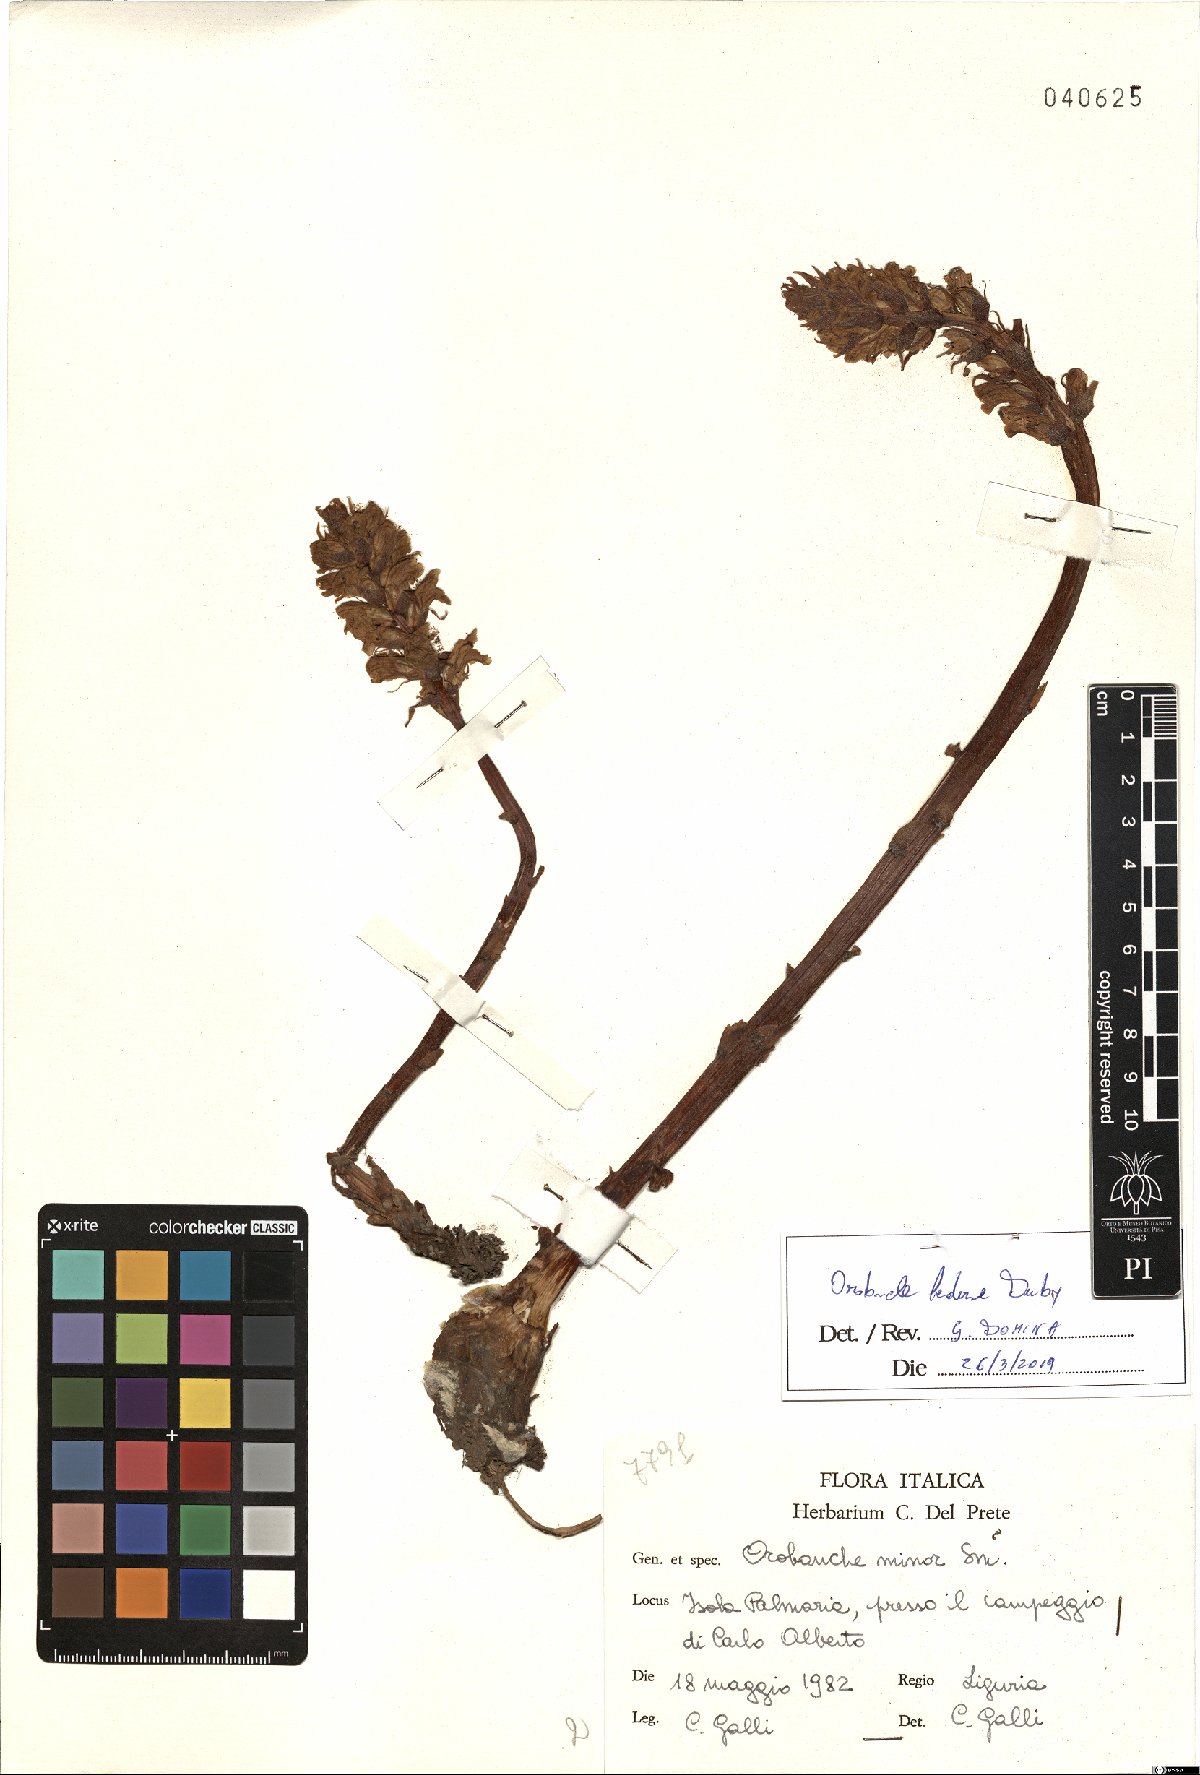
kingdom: Plantae
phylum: Tracheophyta
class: Magnoliopsida
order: Lamiales
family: Orobanchaceae
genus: Orobanche
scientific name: Orobanche hederae
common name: Ivy broomrape
